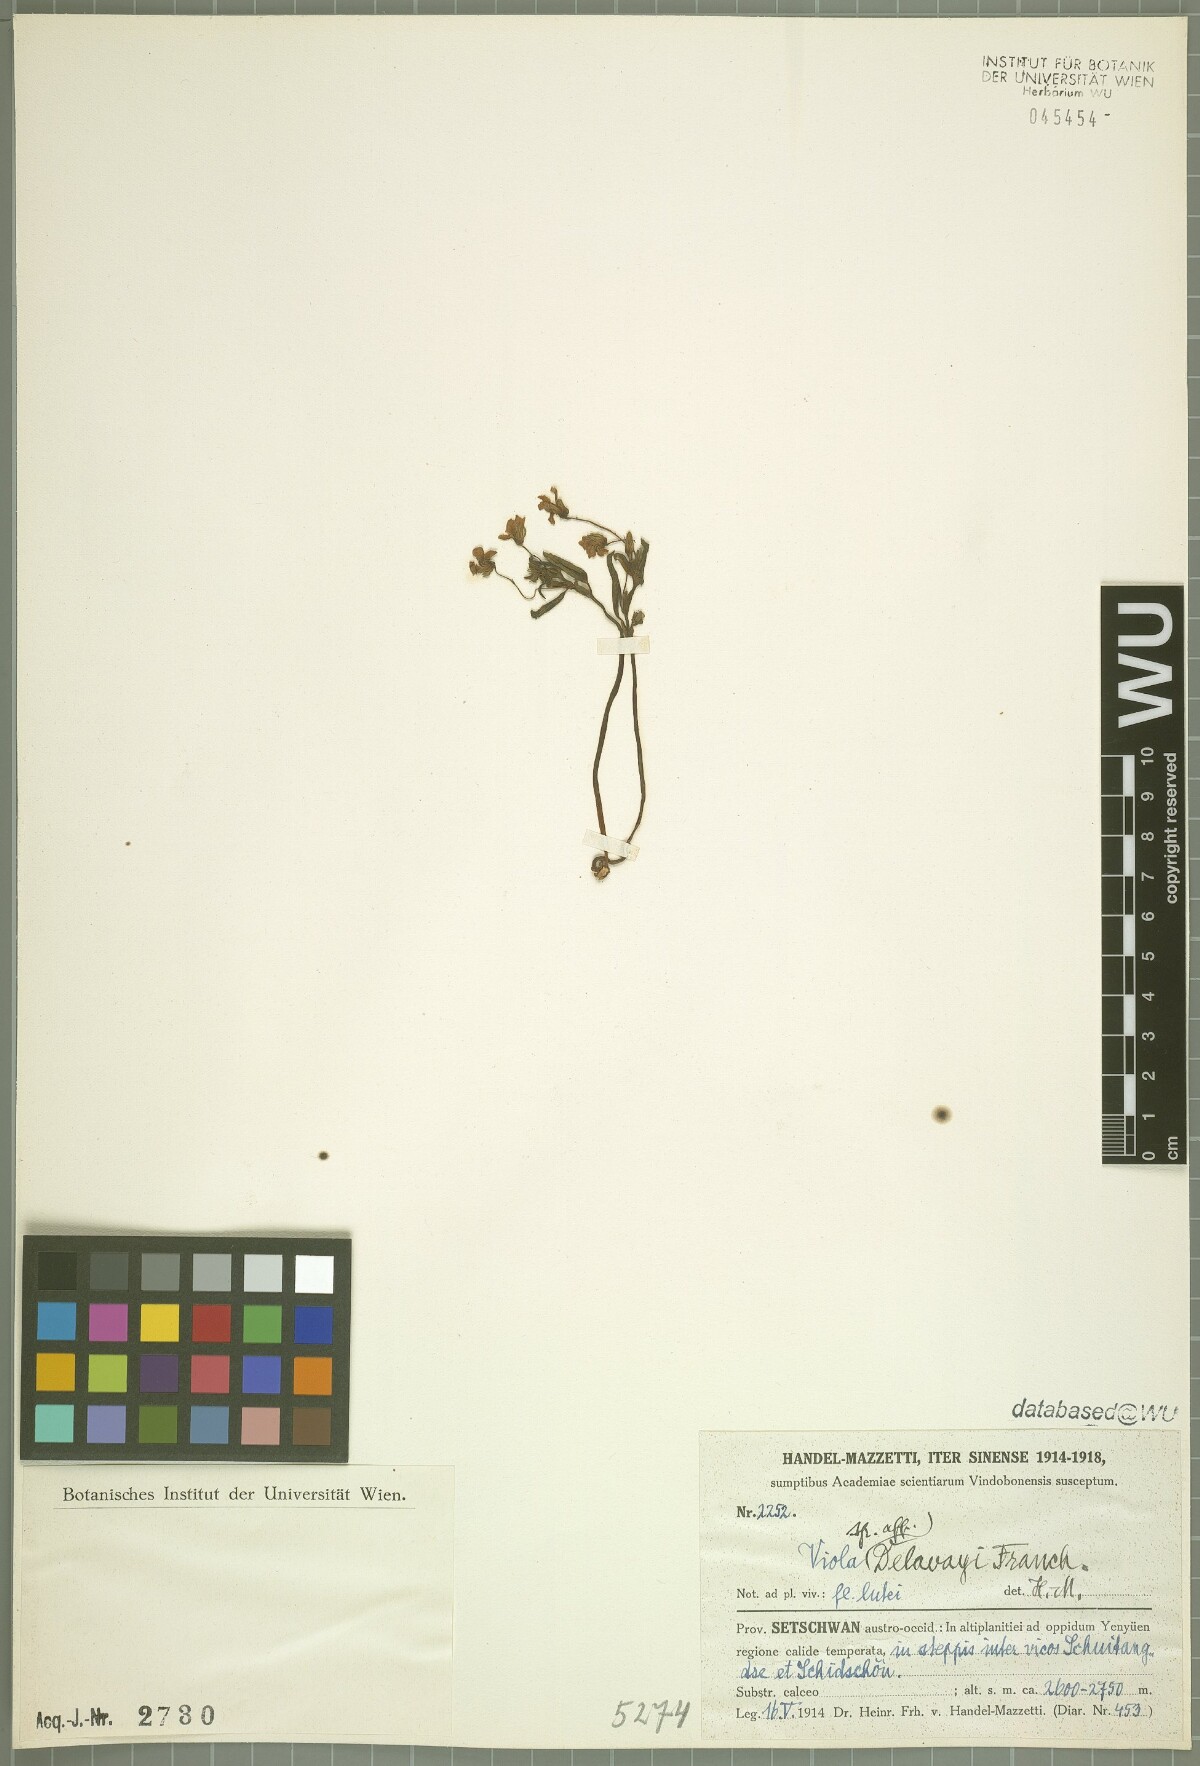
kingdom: Plantae
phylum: Tracheophyta
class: Magnoliopsida
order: Malpighiales
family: Violaceae
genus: Viola
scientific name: Viola delavayi
